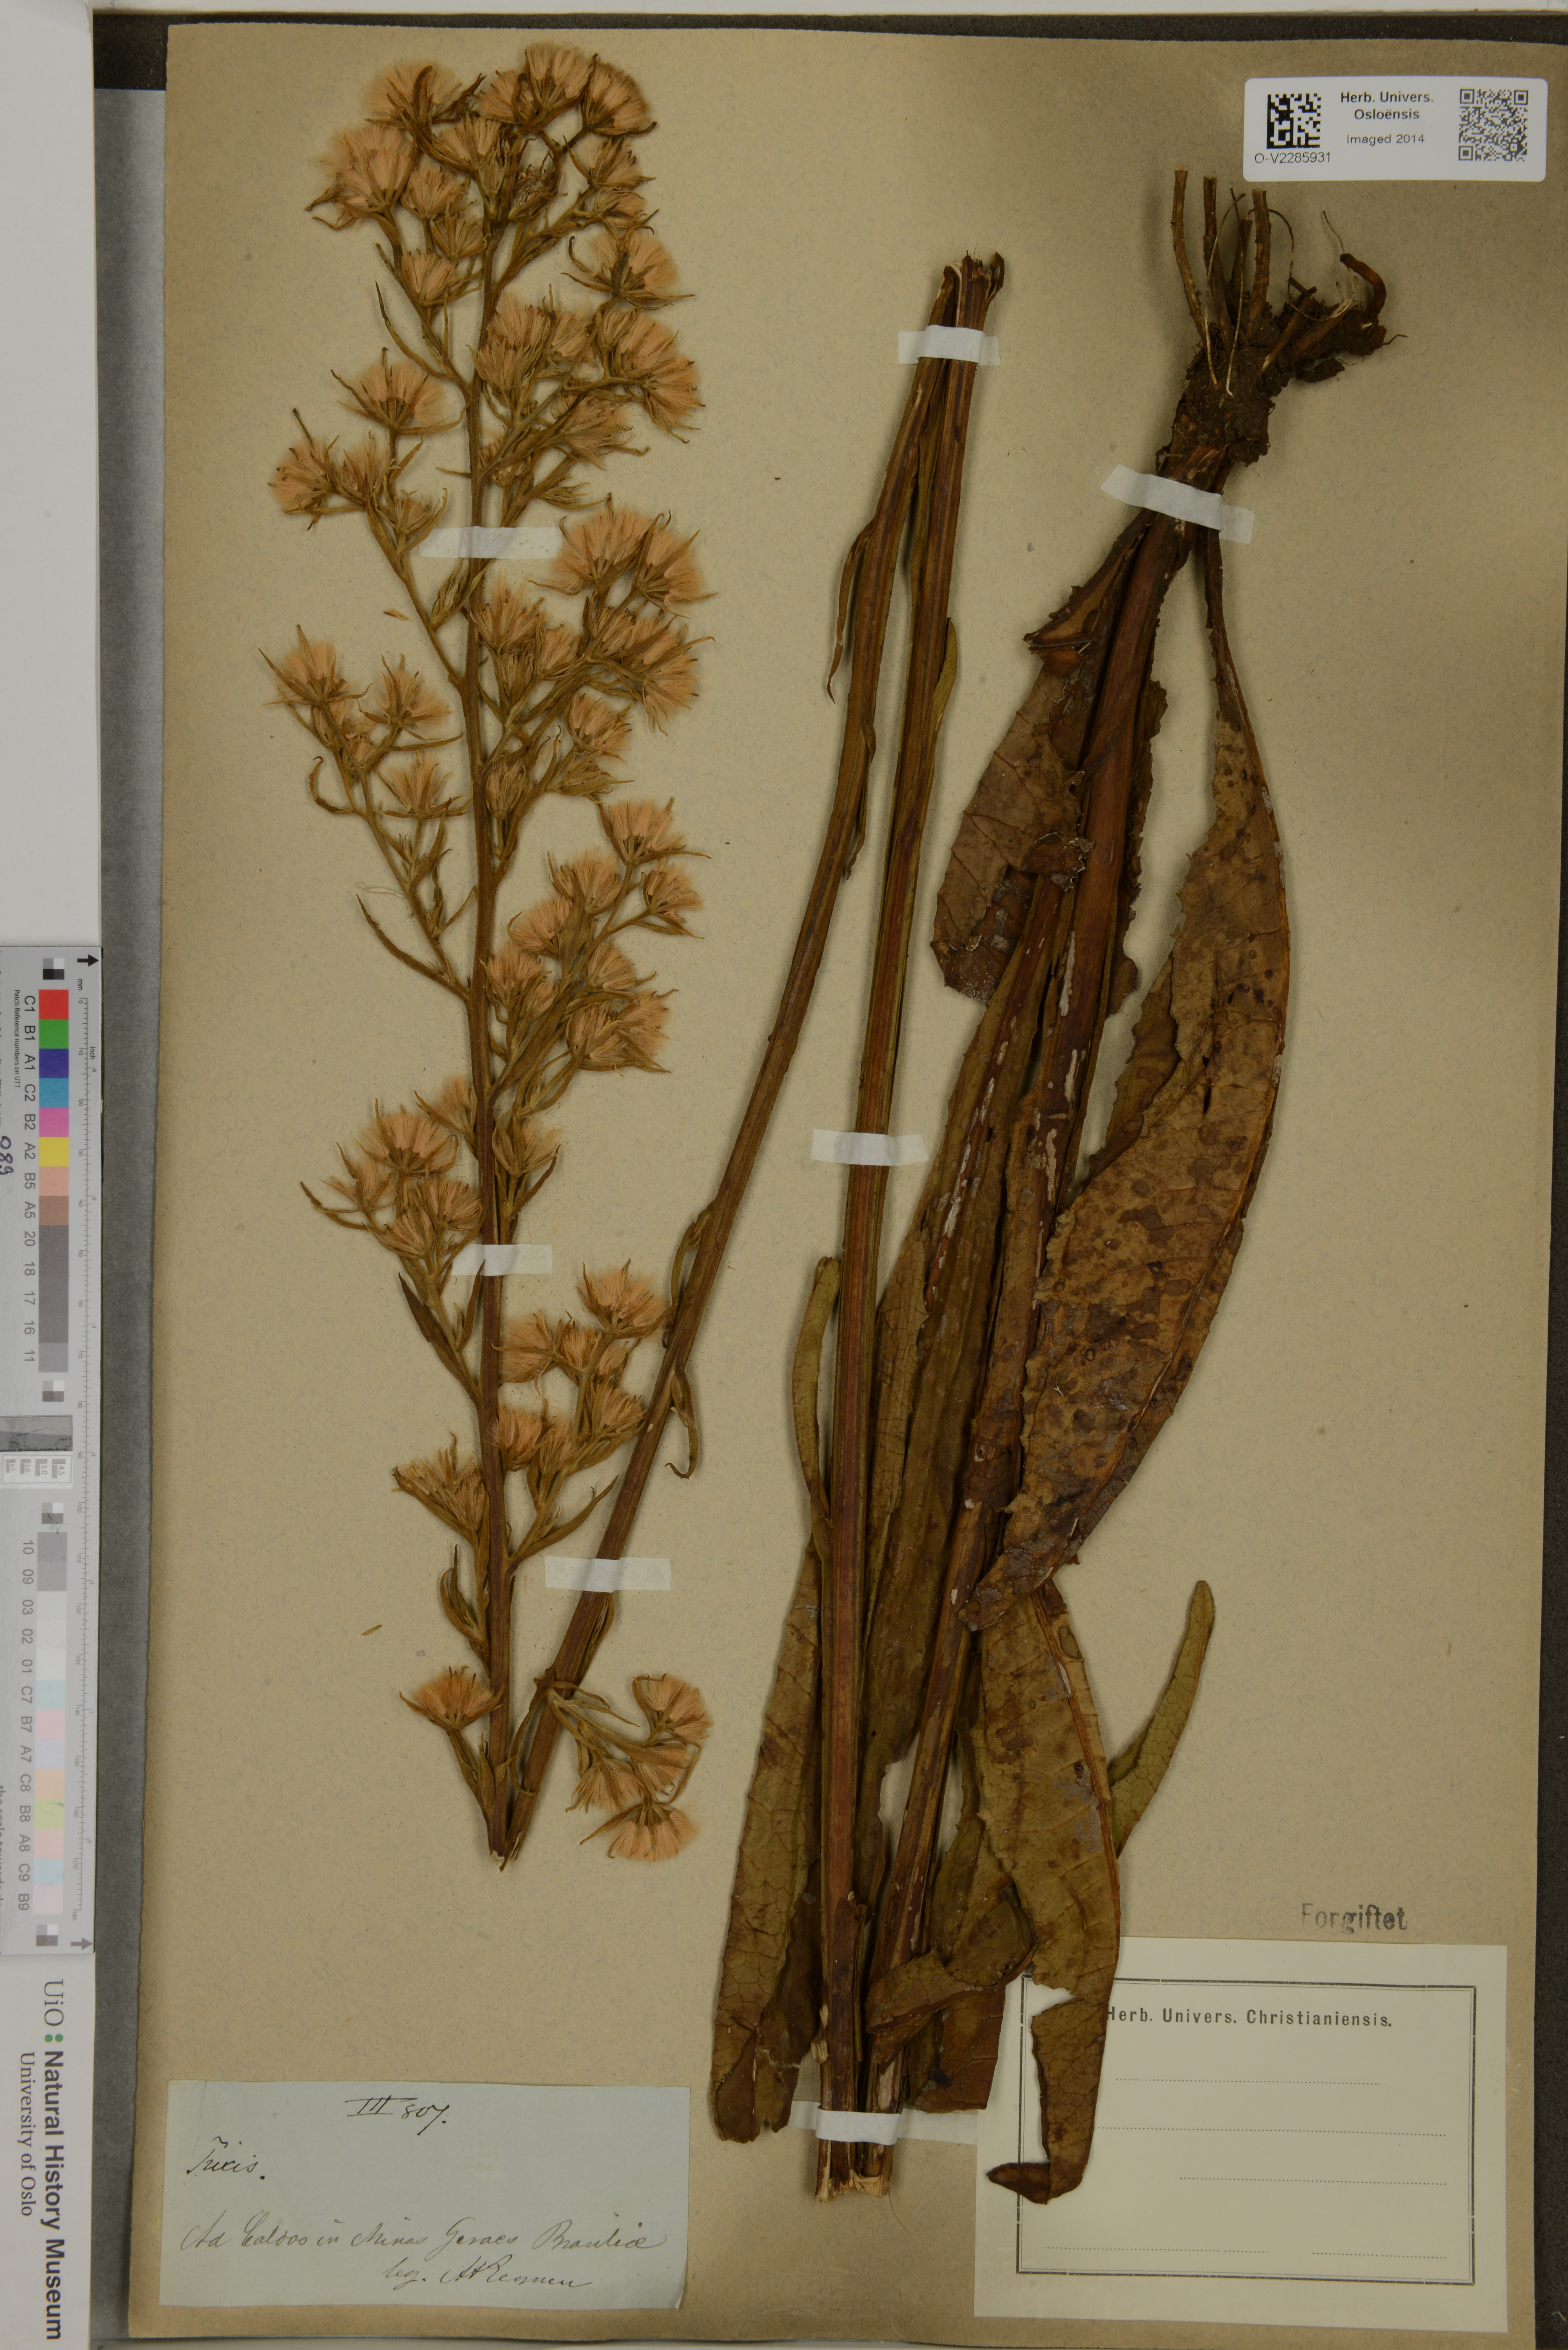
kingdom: Plantae
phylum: Tracheophyta
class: Magnoliopsida
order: Asterales
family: Asteraceae
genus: Trixis
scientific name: Trixis
